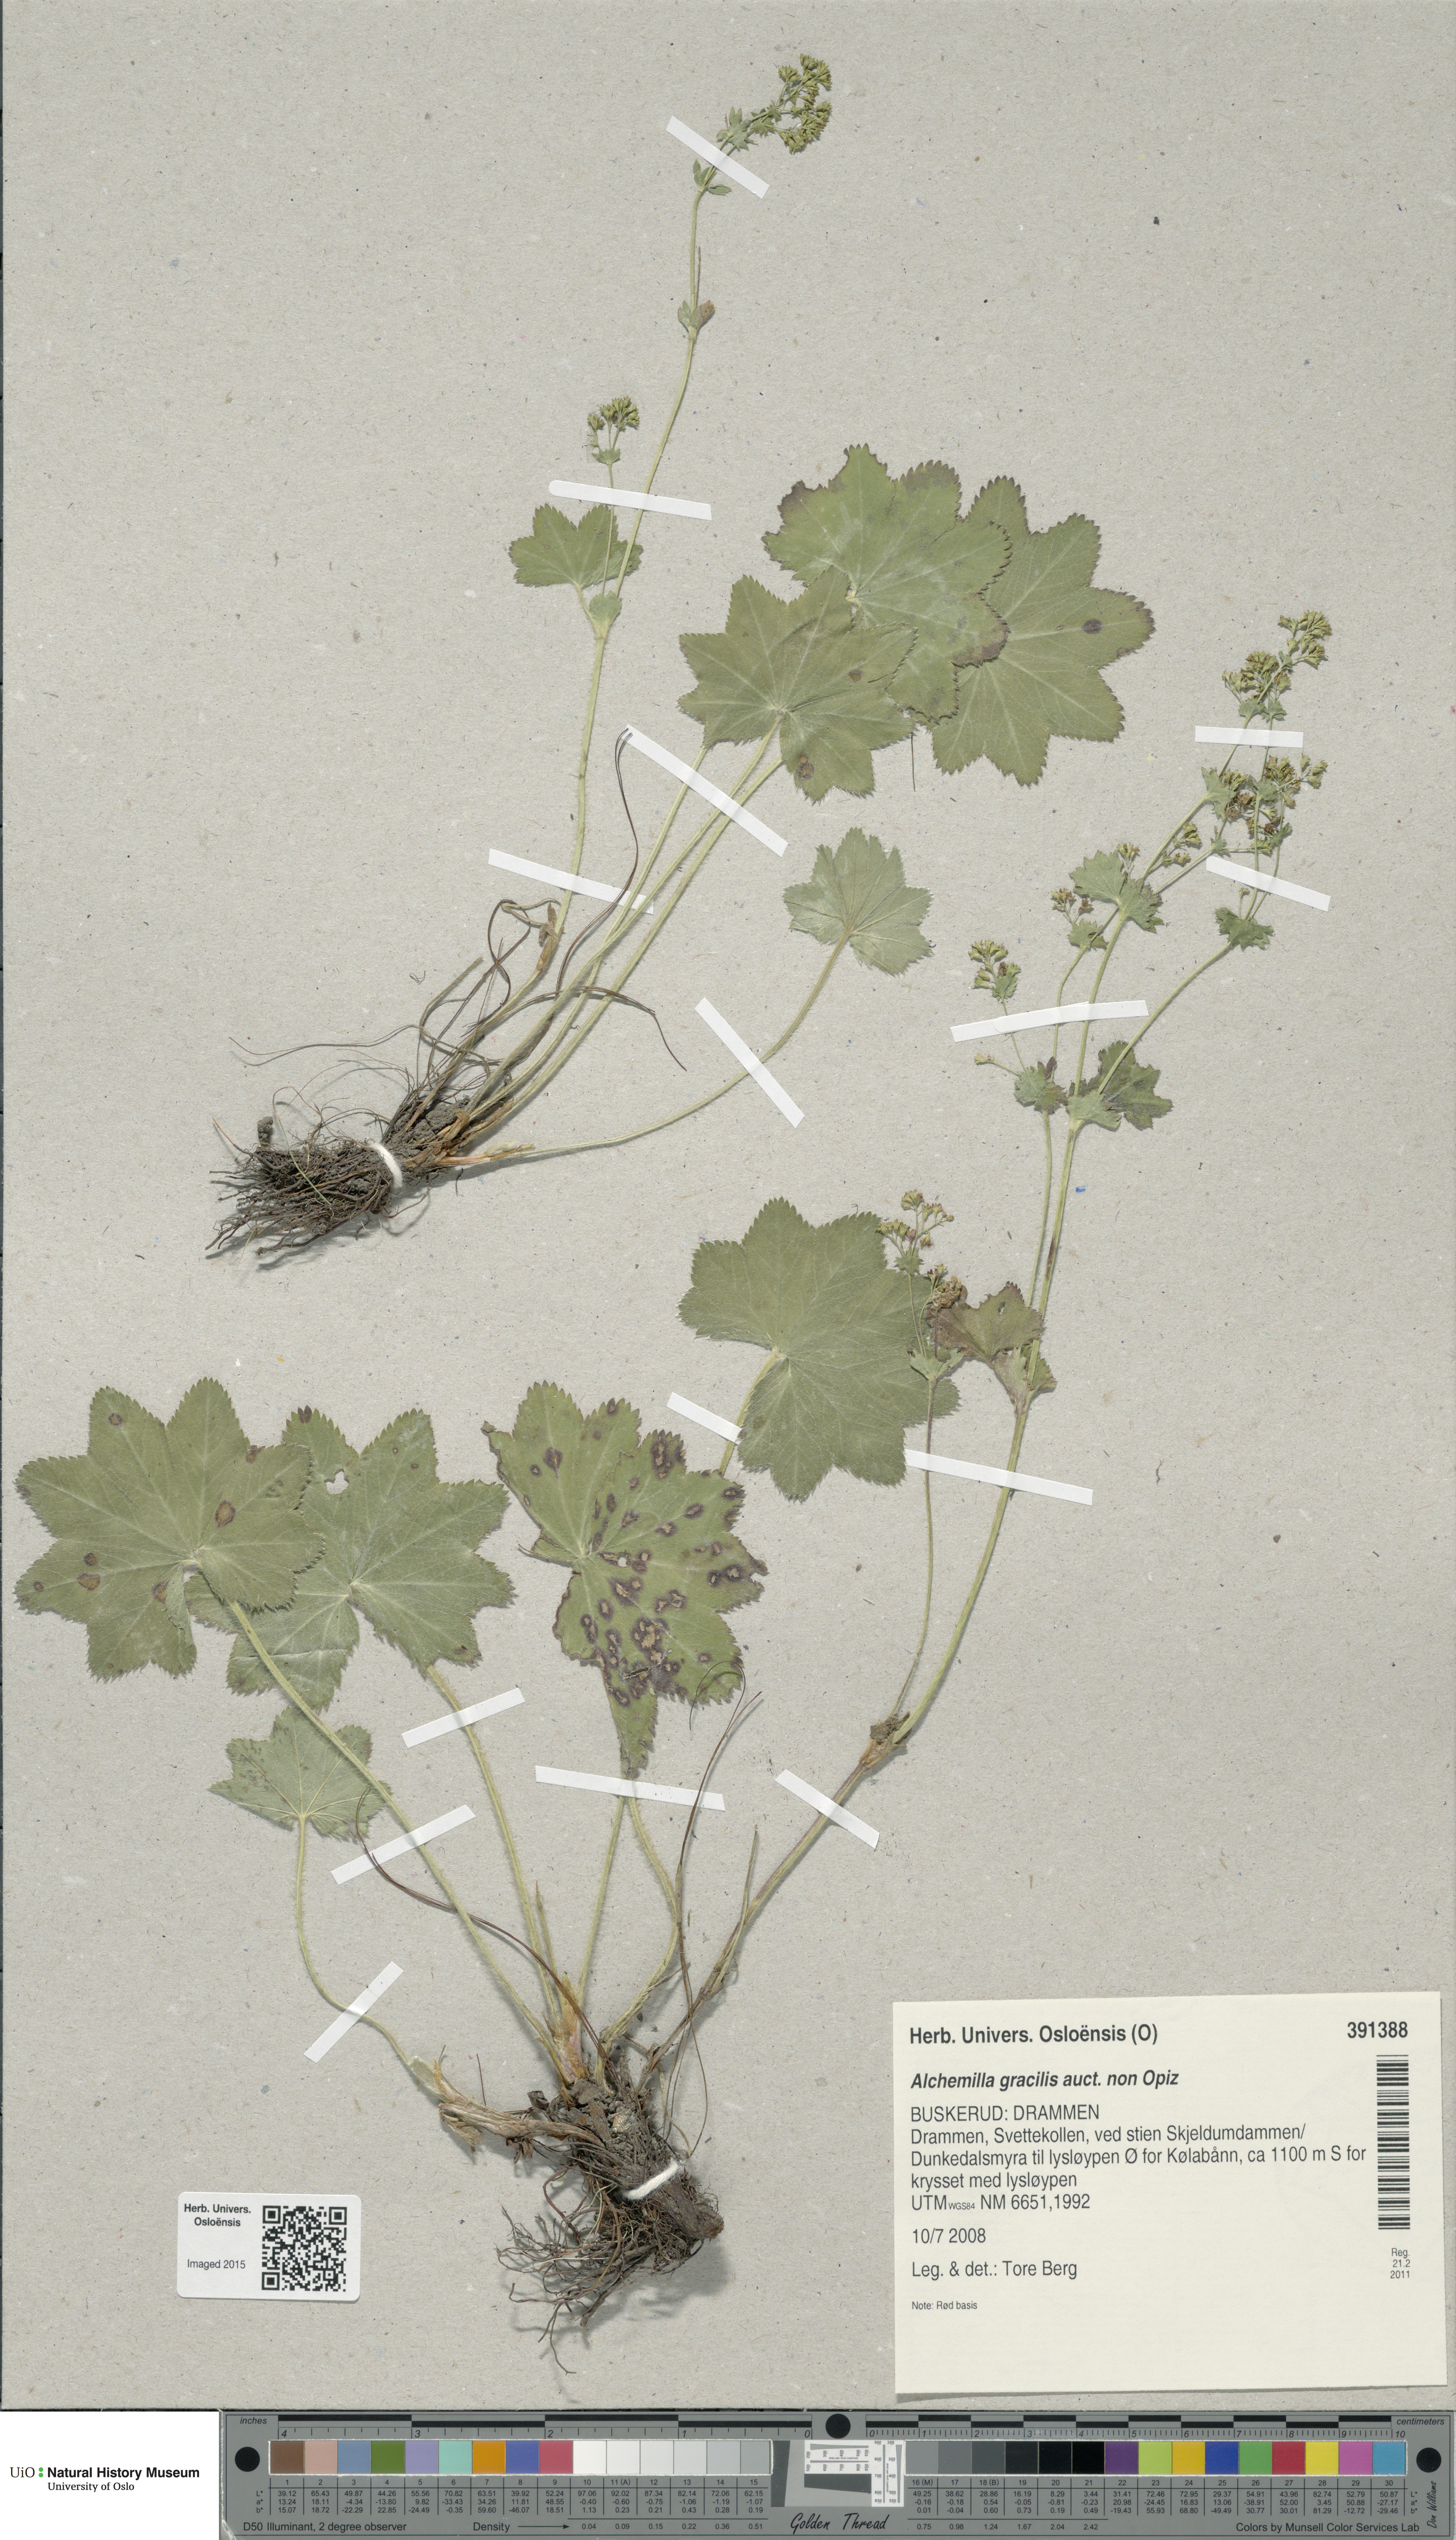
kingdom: Plantae
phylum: Tracheophyta
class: Magnoliopsida
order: Rosales
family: Rosaceae
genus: Alchemilla
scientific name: Alchemilla micans
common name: Gleaming lady's mantle
